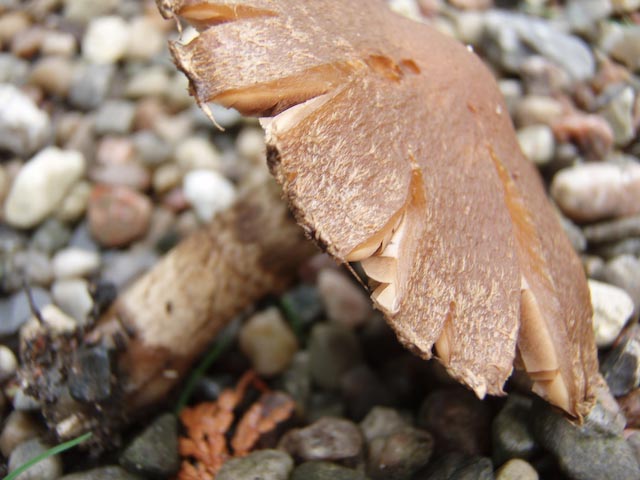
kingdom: Fungi
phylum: Basidiomycota
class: Agaricomycetes
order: Agaricales
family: Psathyrellaceae
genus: Lacrymaria
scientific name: Lacrymaria lacrymabunda
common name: grædende mørkhat
